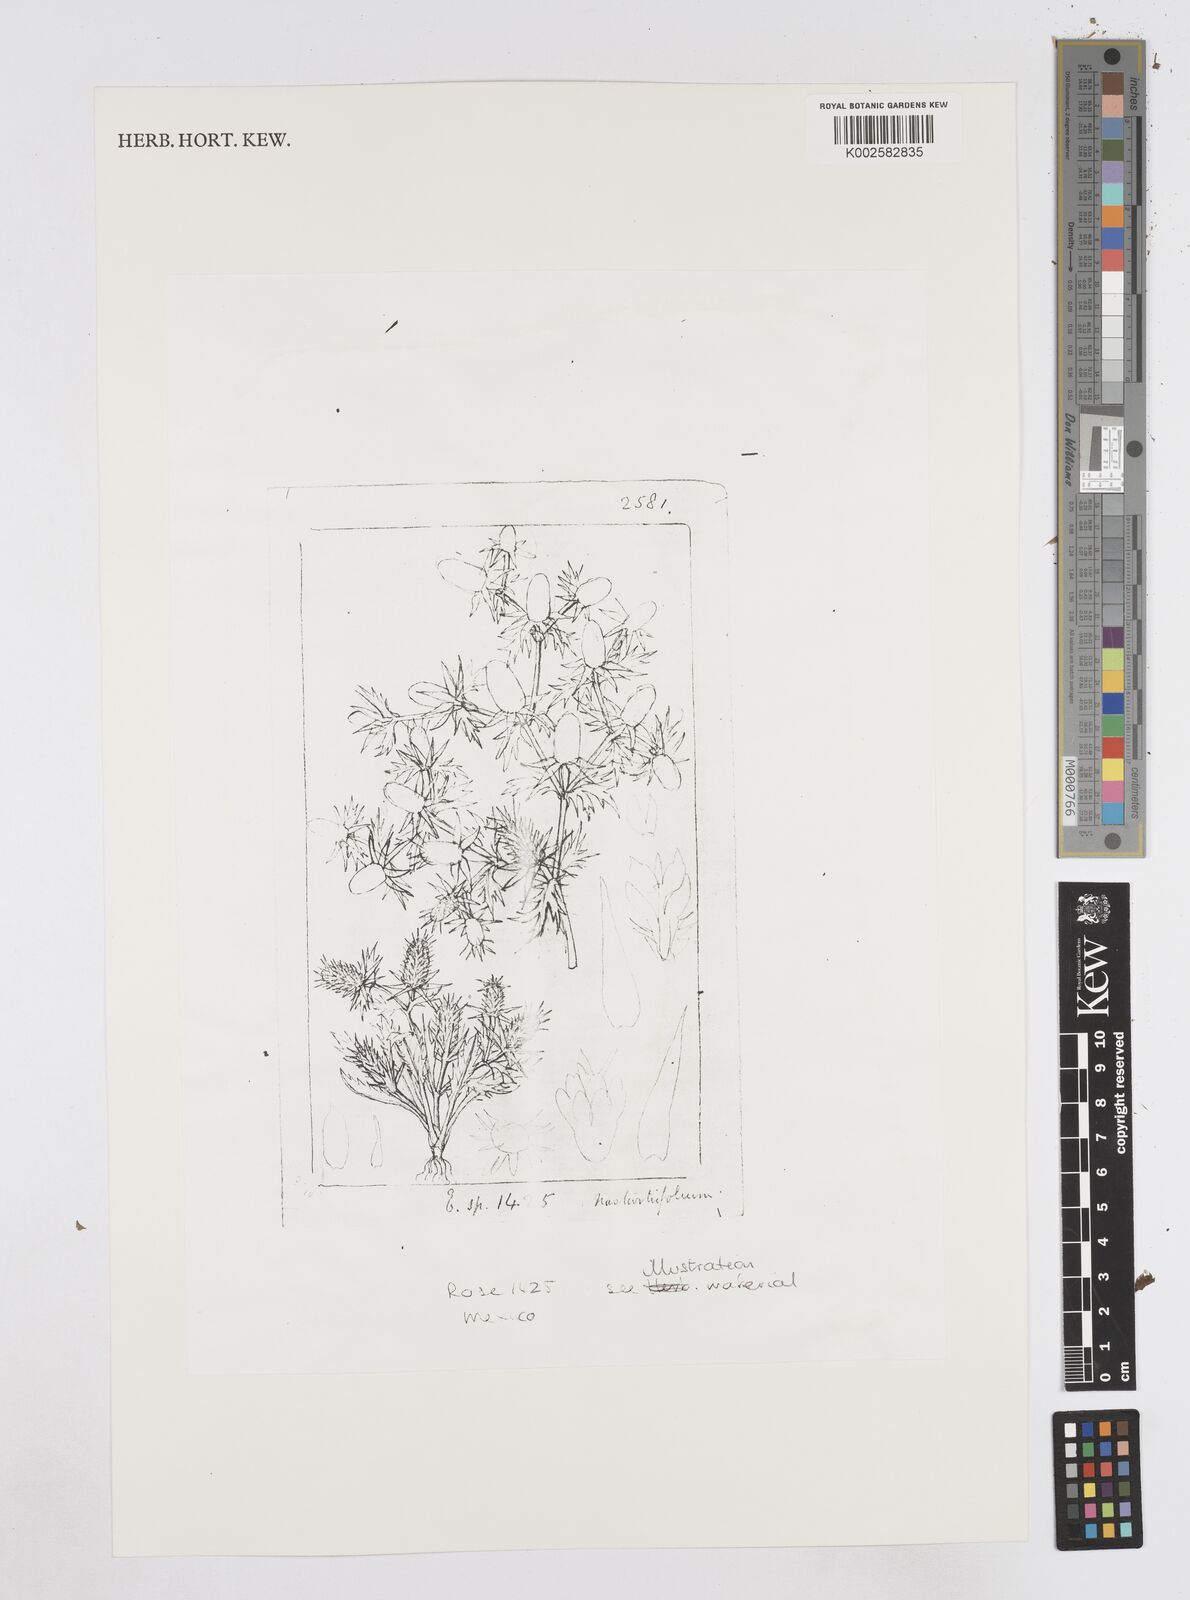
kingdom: Plantae
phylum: Tracheophyta
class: Magnoliopsida
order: Apiales
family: Apiaceae
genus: Eryngium
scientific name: Eryngium nasturtiifolium
